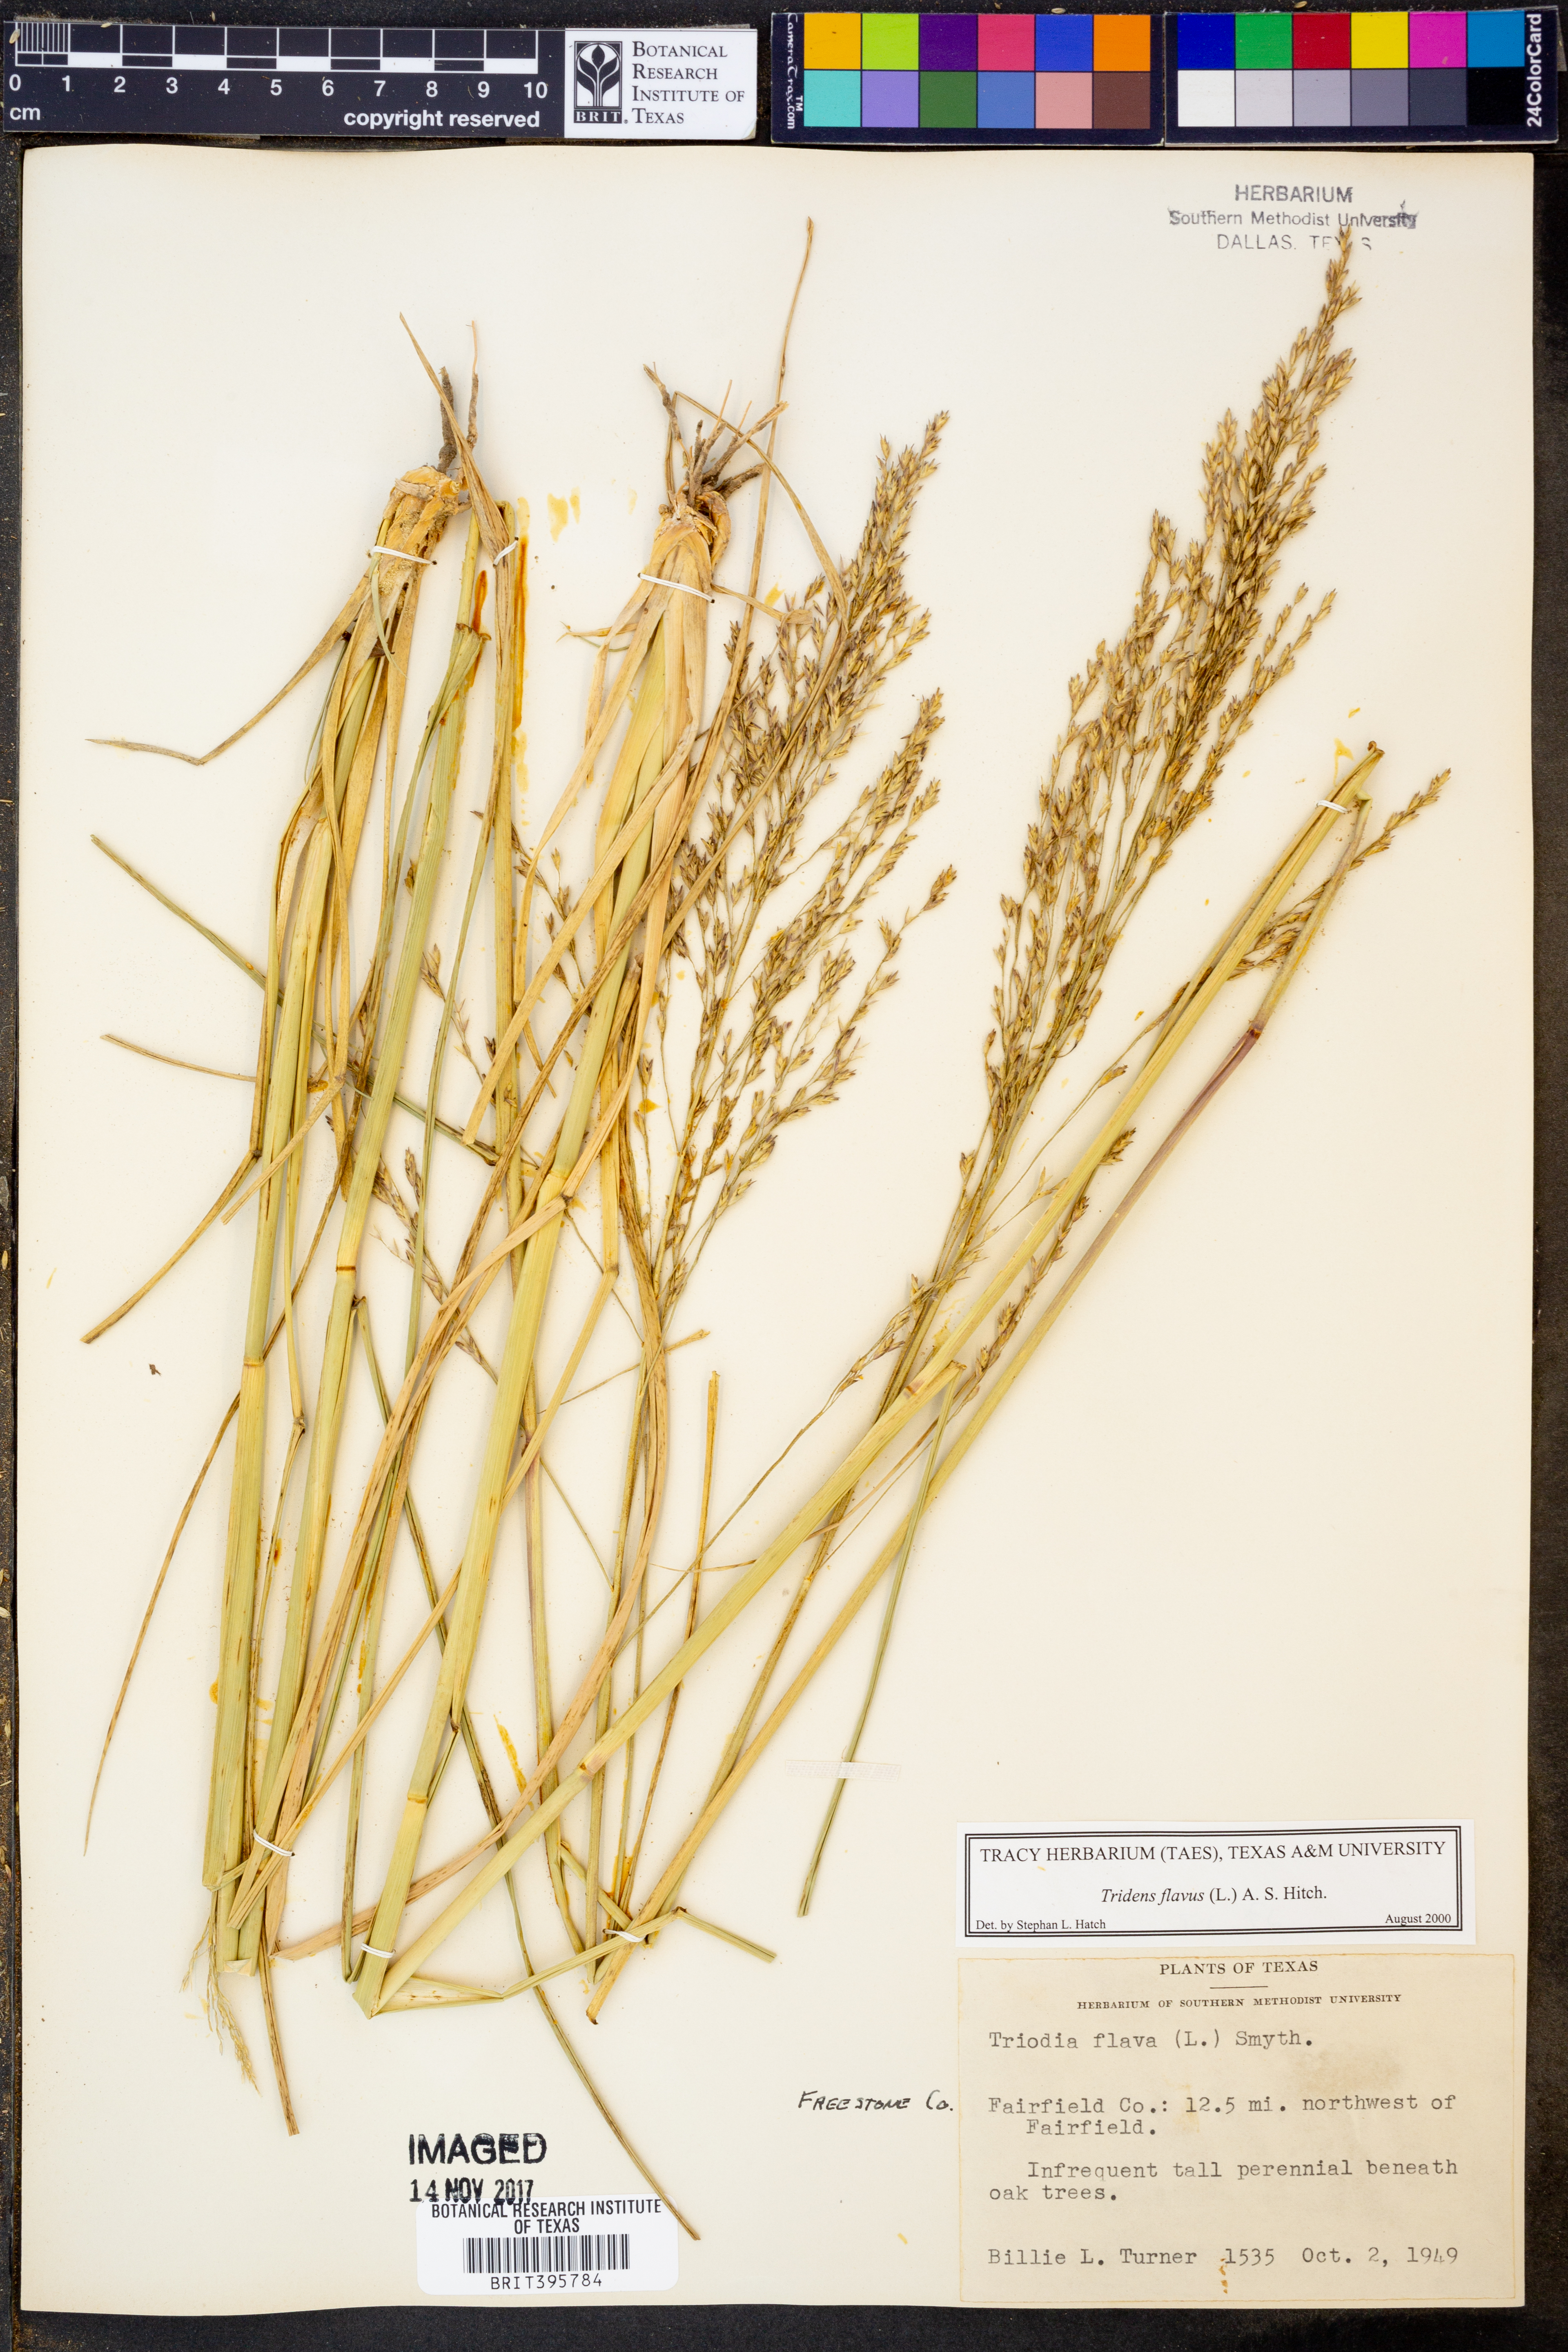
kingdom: Plantae
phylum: Tracheophyta
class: Liliopsida
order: Poales
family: Poaceae
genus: Tridens
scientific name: Tridens flavus
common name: Purpletop
